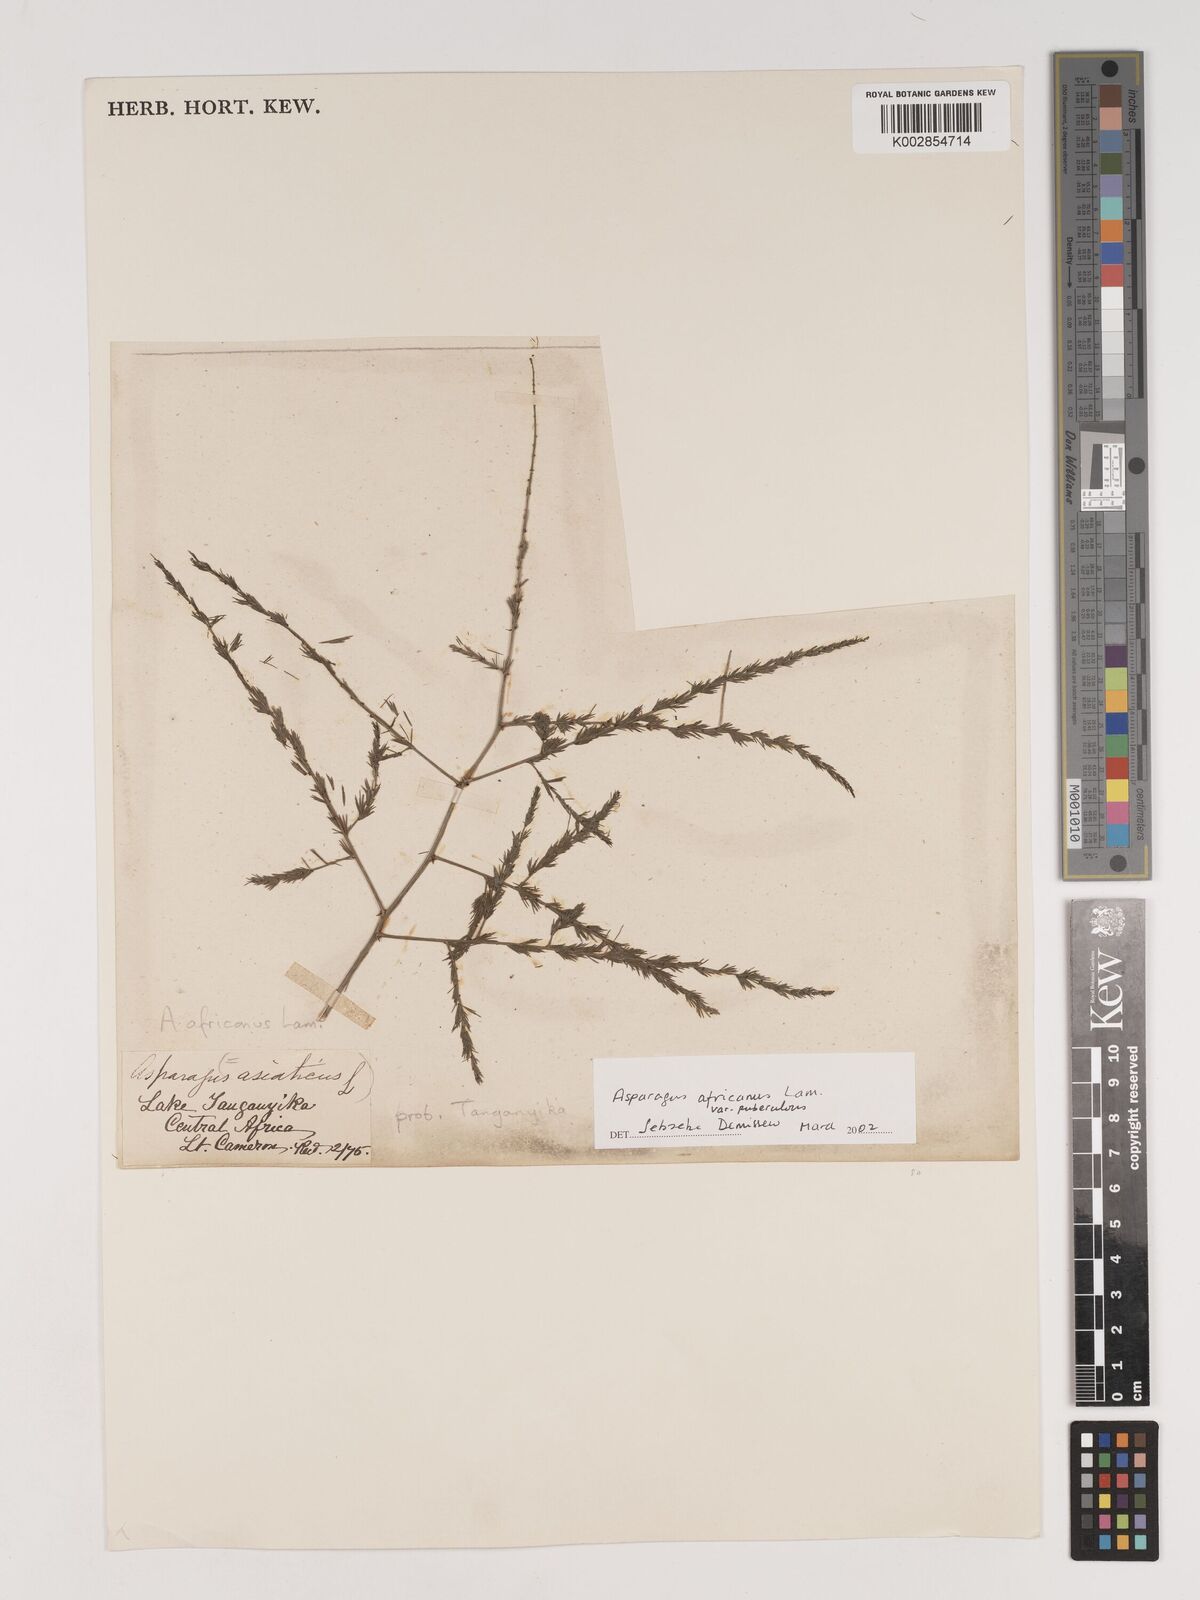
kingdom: Plantae
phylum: Tracheophyta
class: Liliopsida
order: Asparagales
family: Asparagaceae
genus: Asparagus
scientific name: Asparagus africanus
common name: Asparagus-fern
